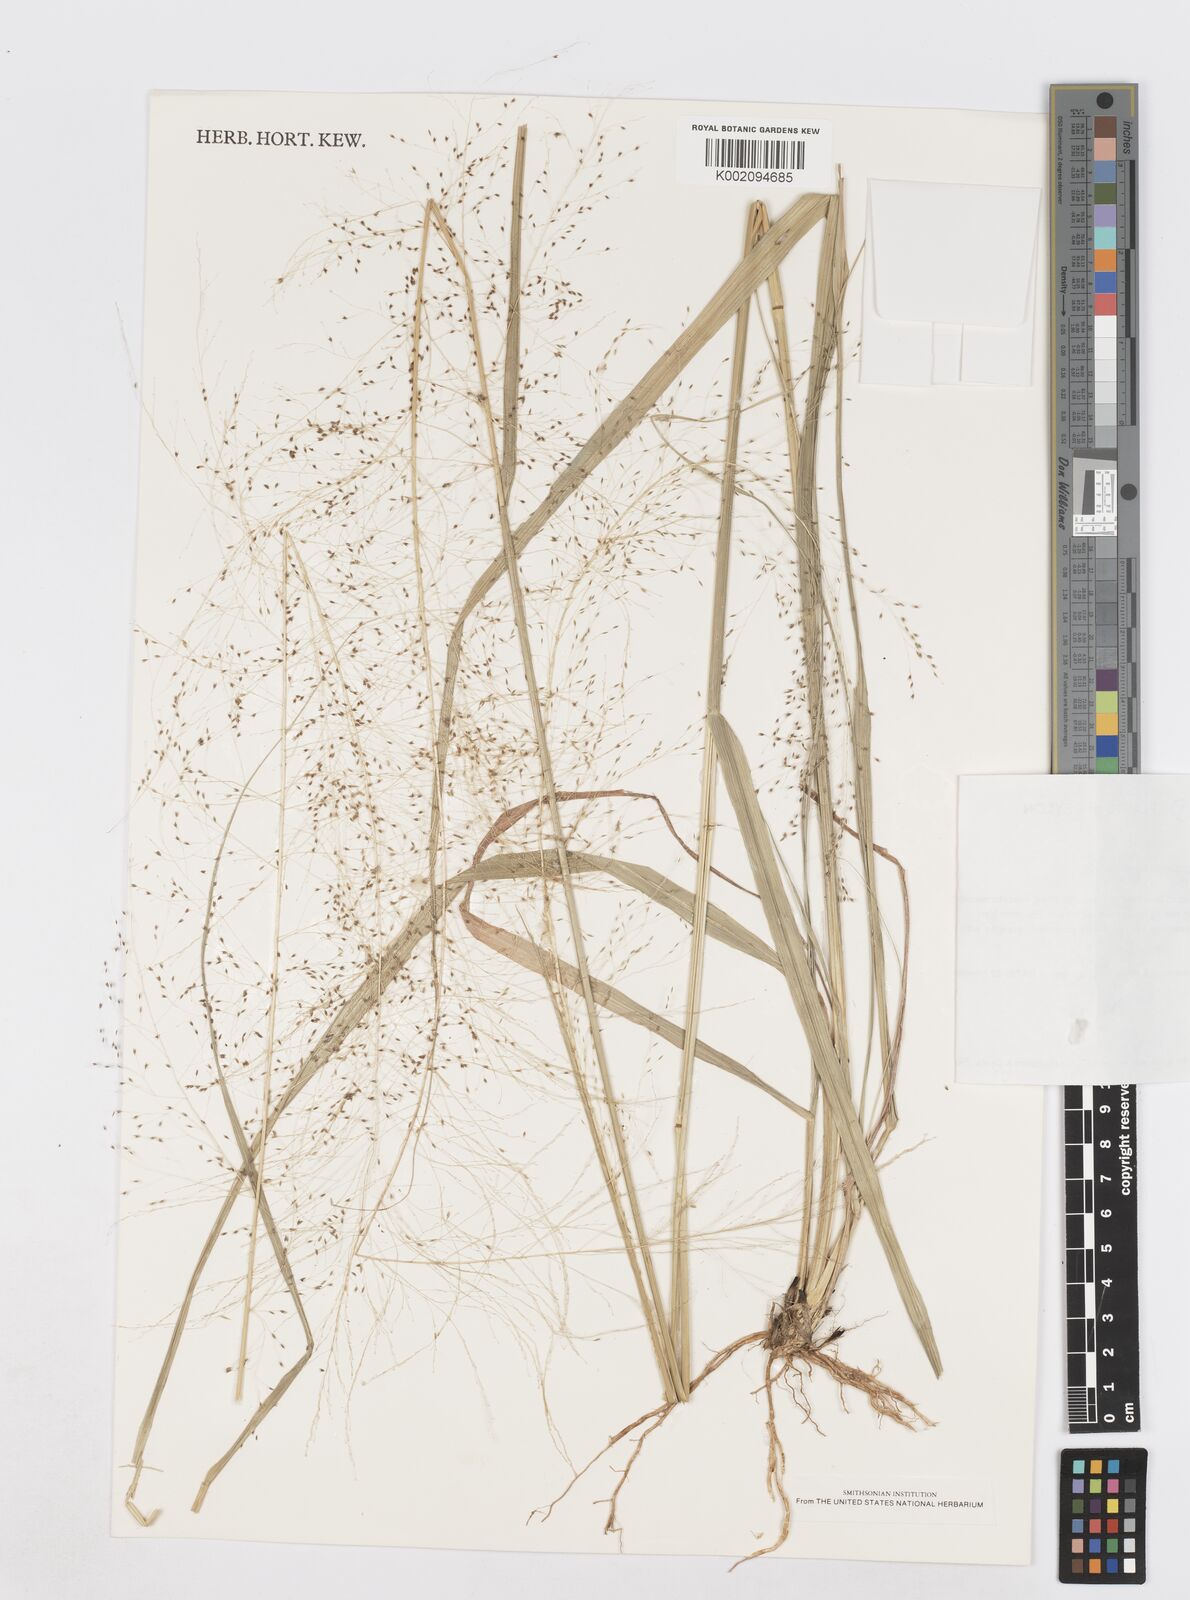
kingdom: Plantae
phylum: Tracheophyta
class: Liliopsida
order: Poales
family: Poaceae
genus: Sporobolus
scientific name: Sporobolus wallichii
